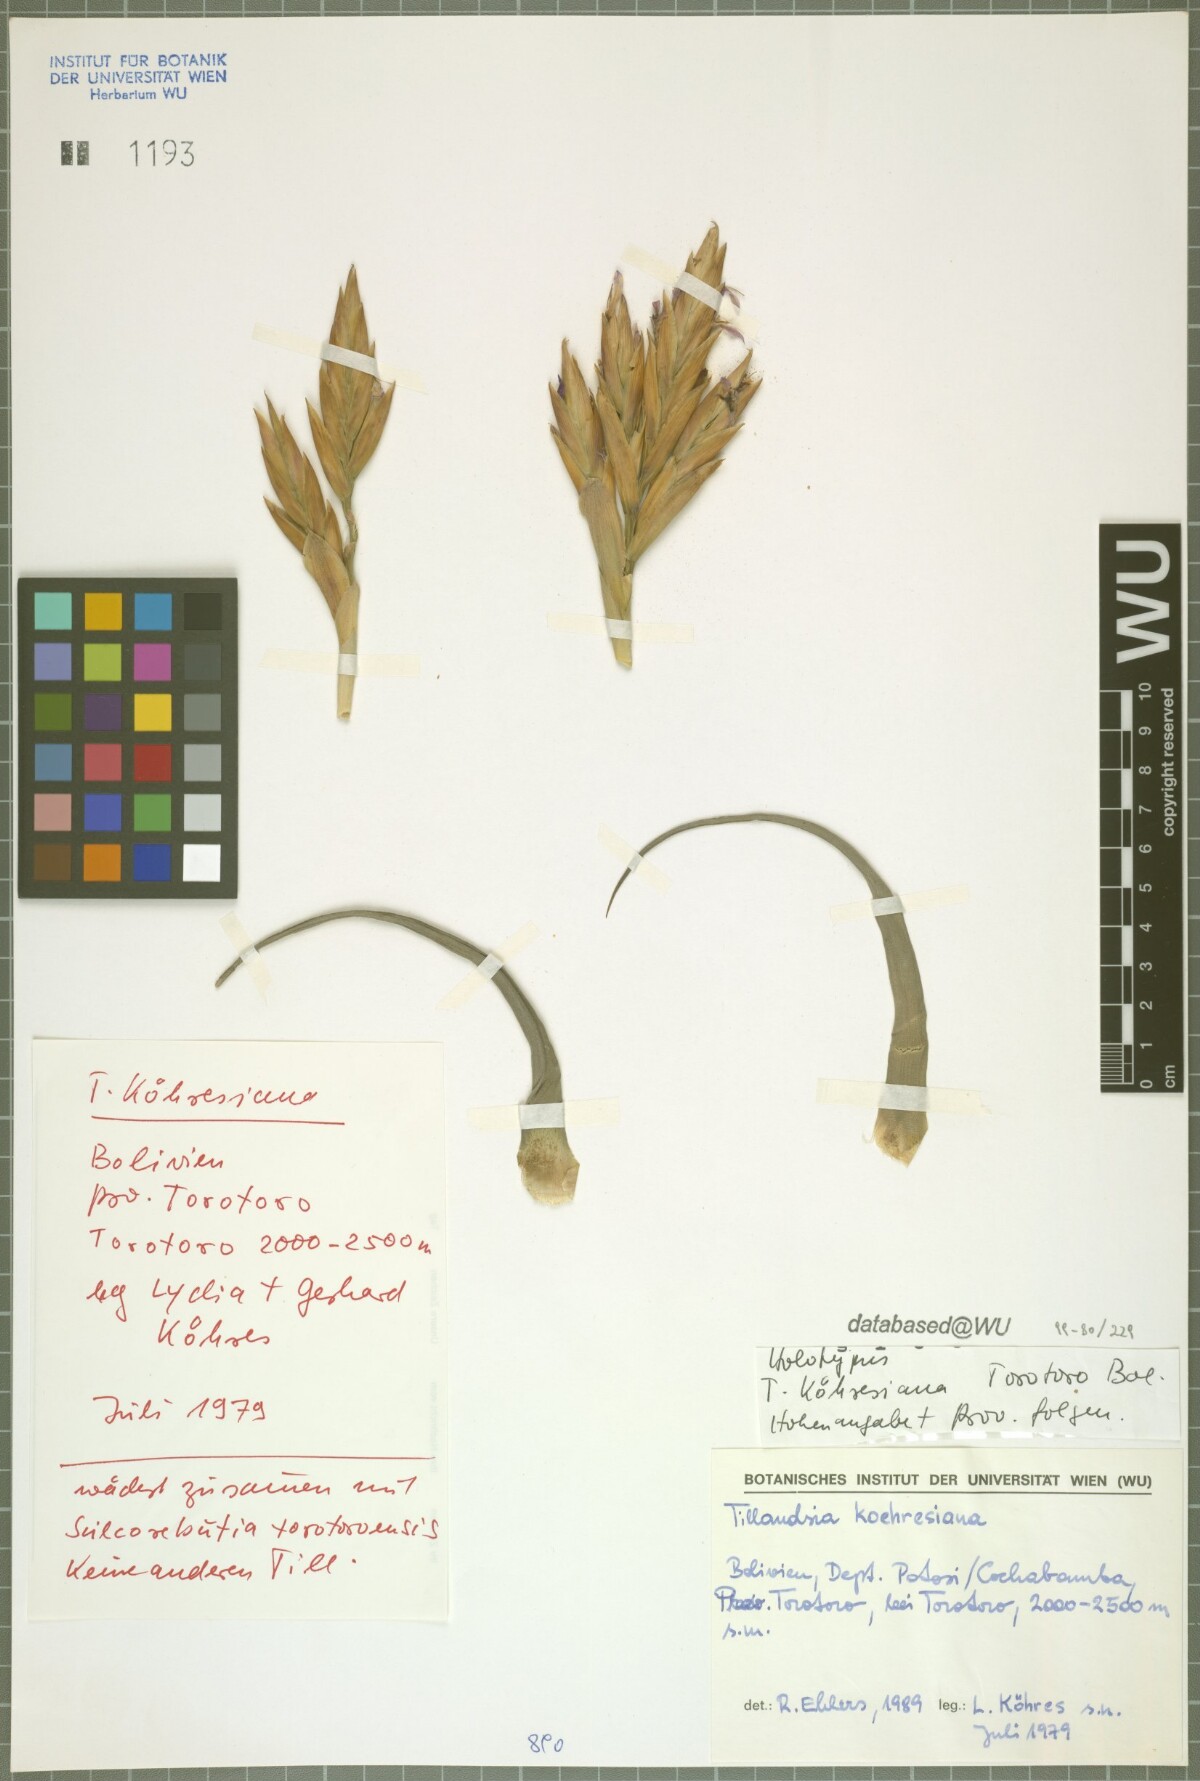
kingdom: Plantae
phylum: Tracheophyta
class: Liliopsida
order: Poales
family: Bromeliaceae
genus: Tillandsia
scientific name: Tillandsia koehresiana
